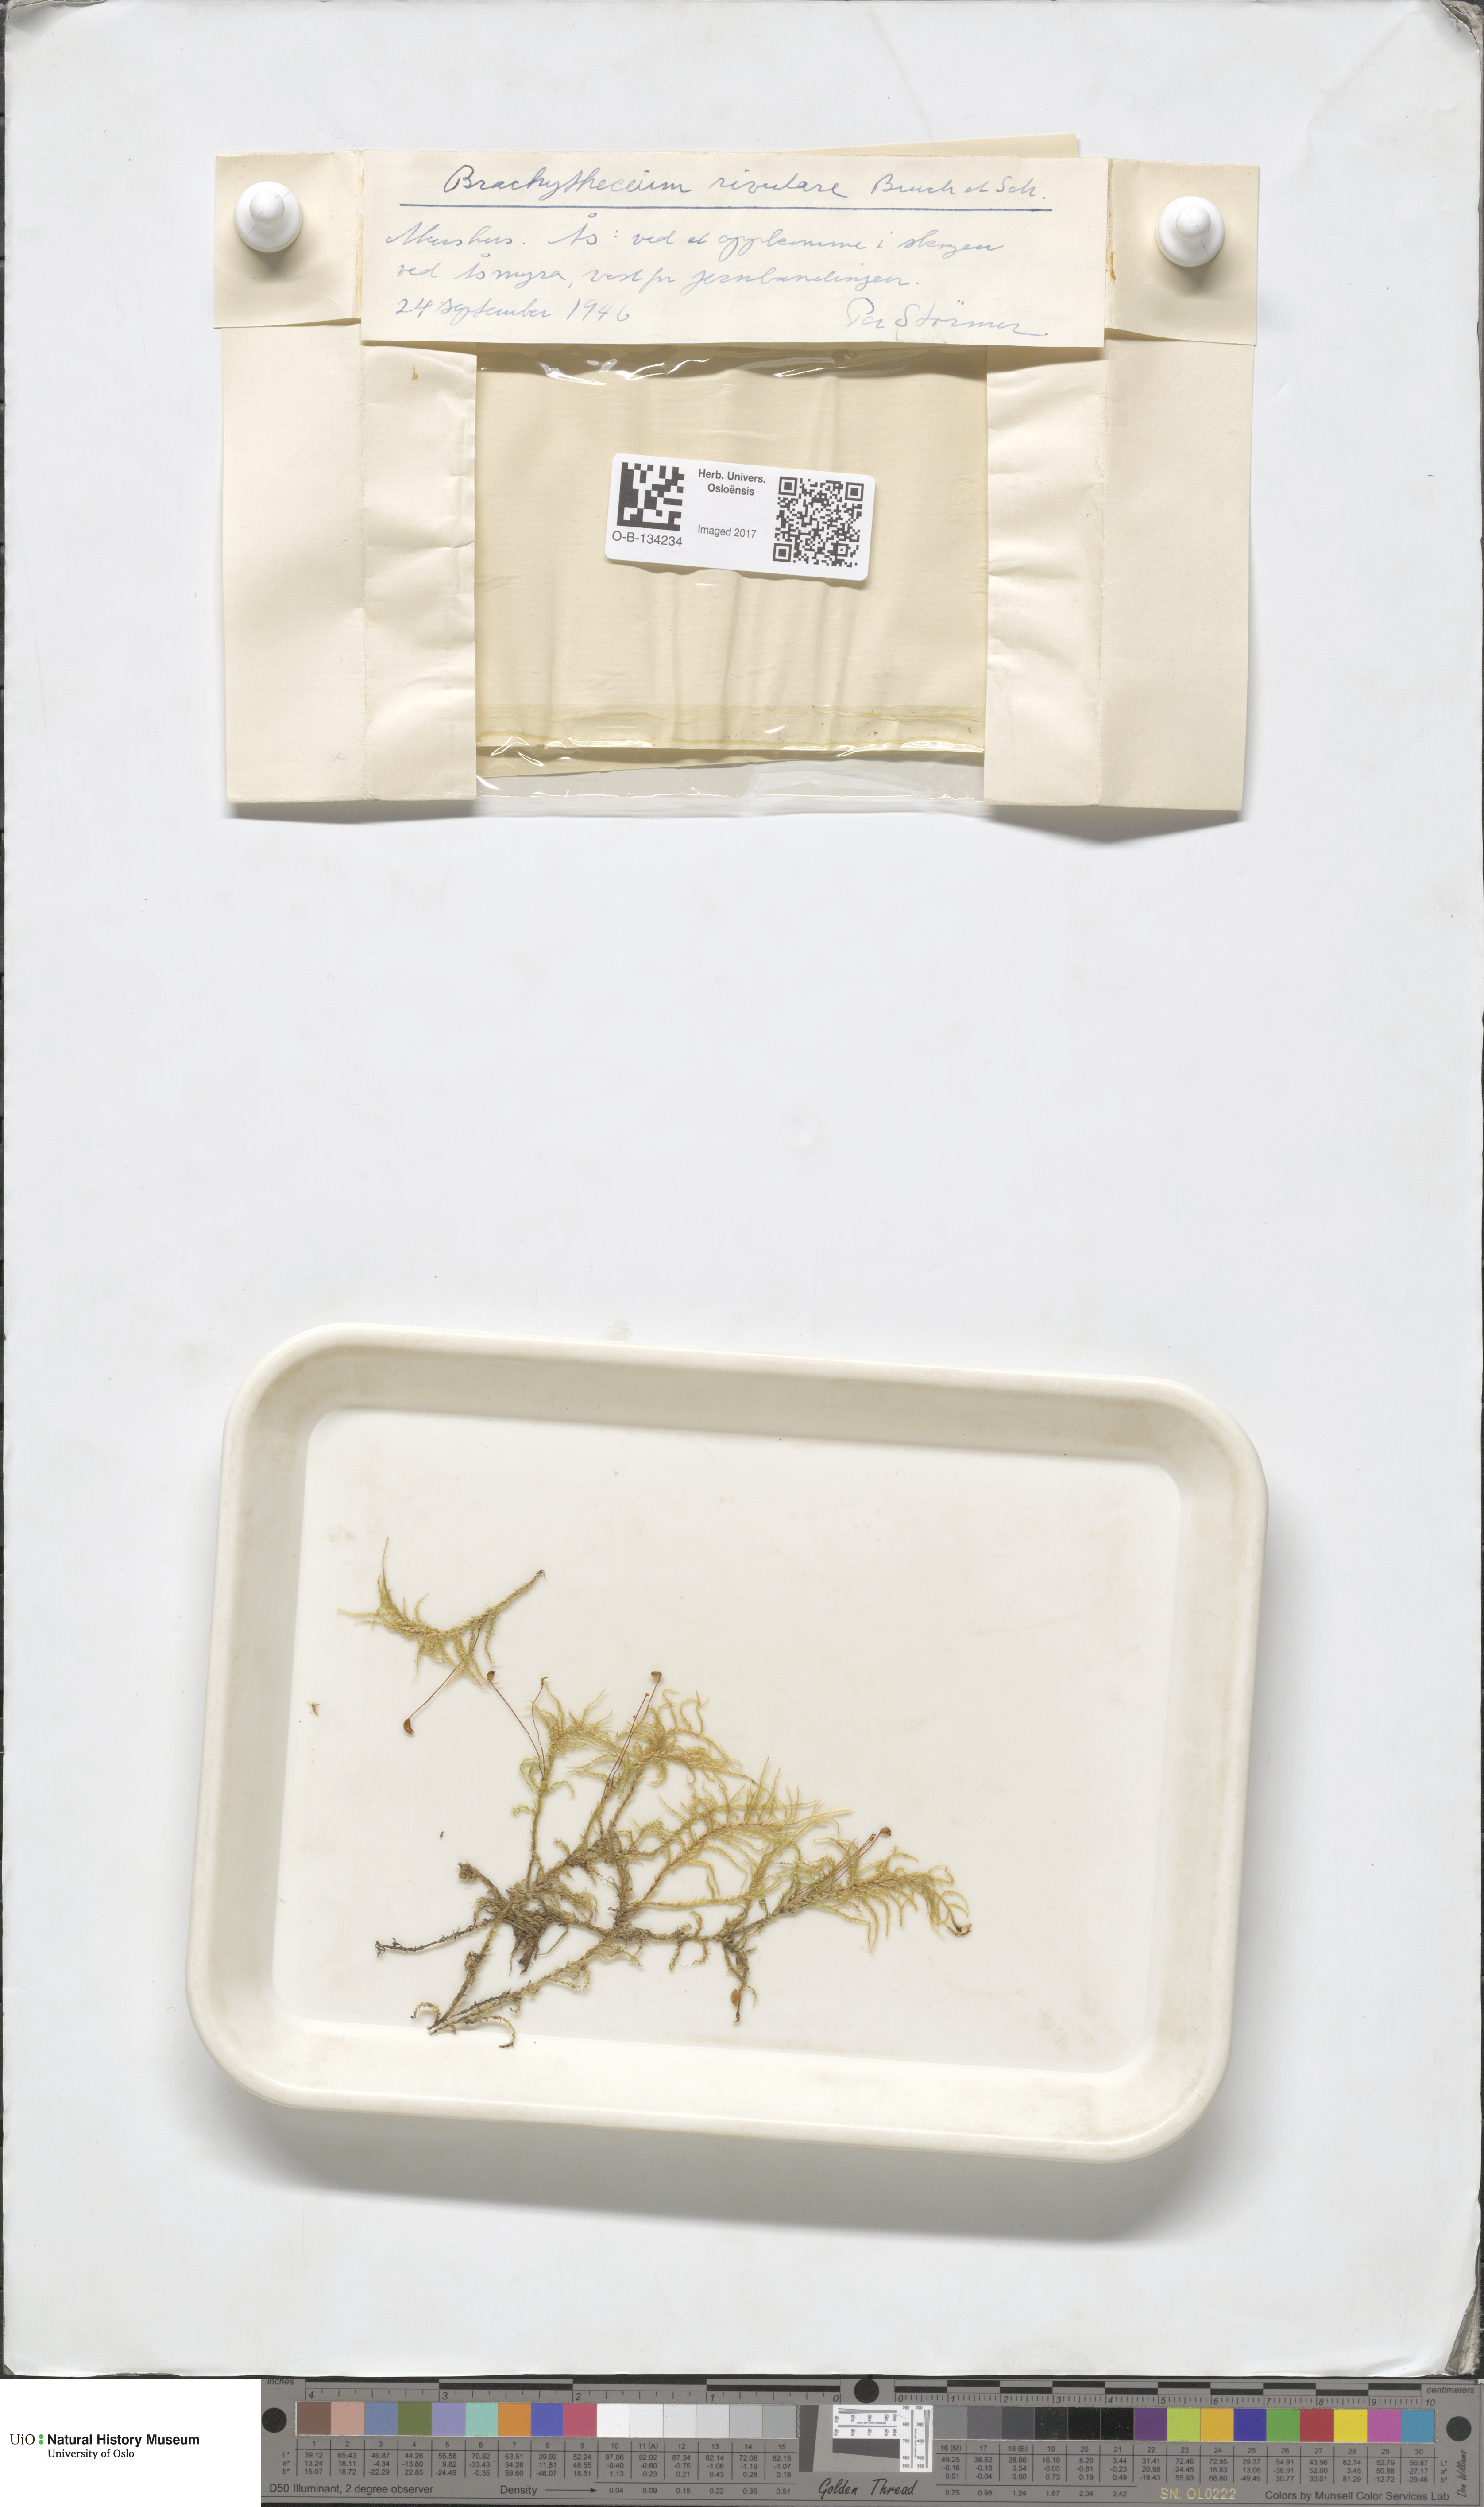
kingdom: Plantae
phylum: Bryophyta
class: Bryopsida
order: Hypnales
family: Brachytheciaceae
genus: Brachythecium
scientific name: Brachythecium rivulare
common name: River ragged moss
